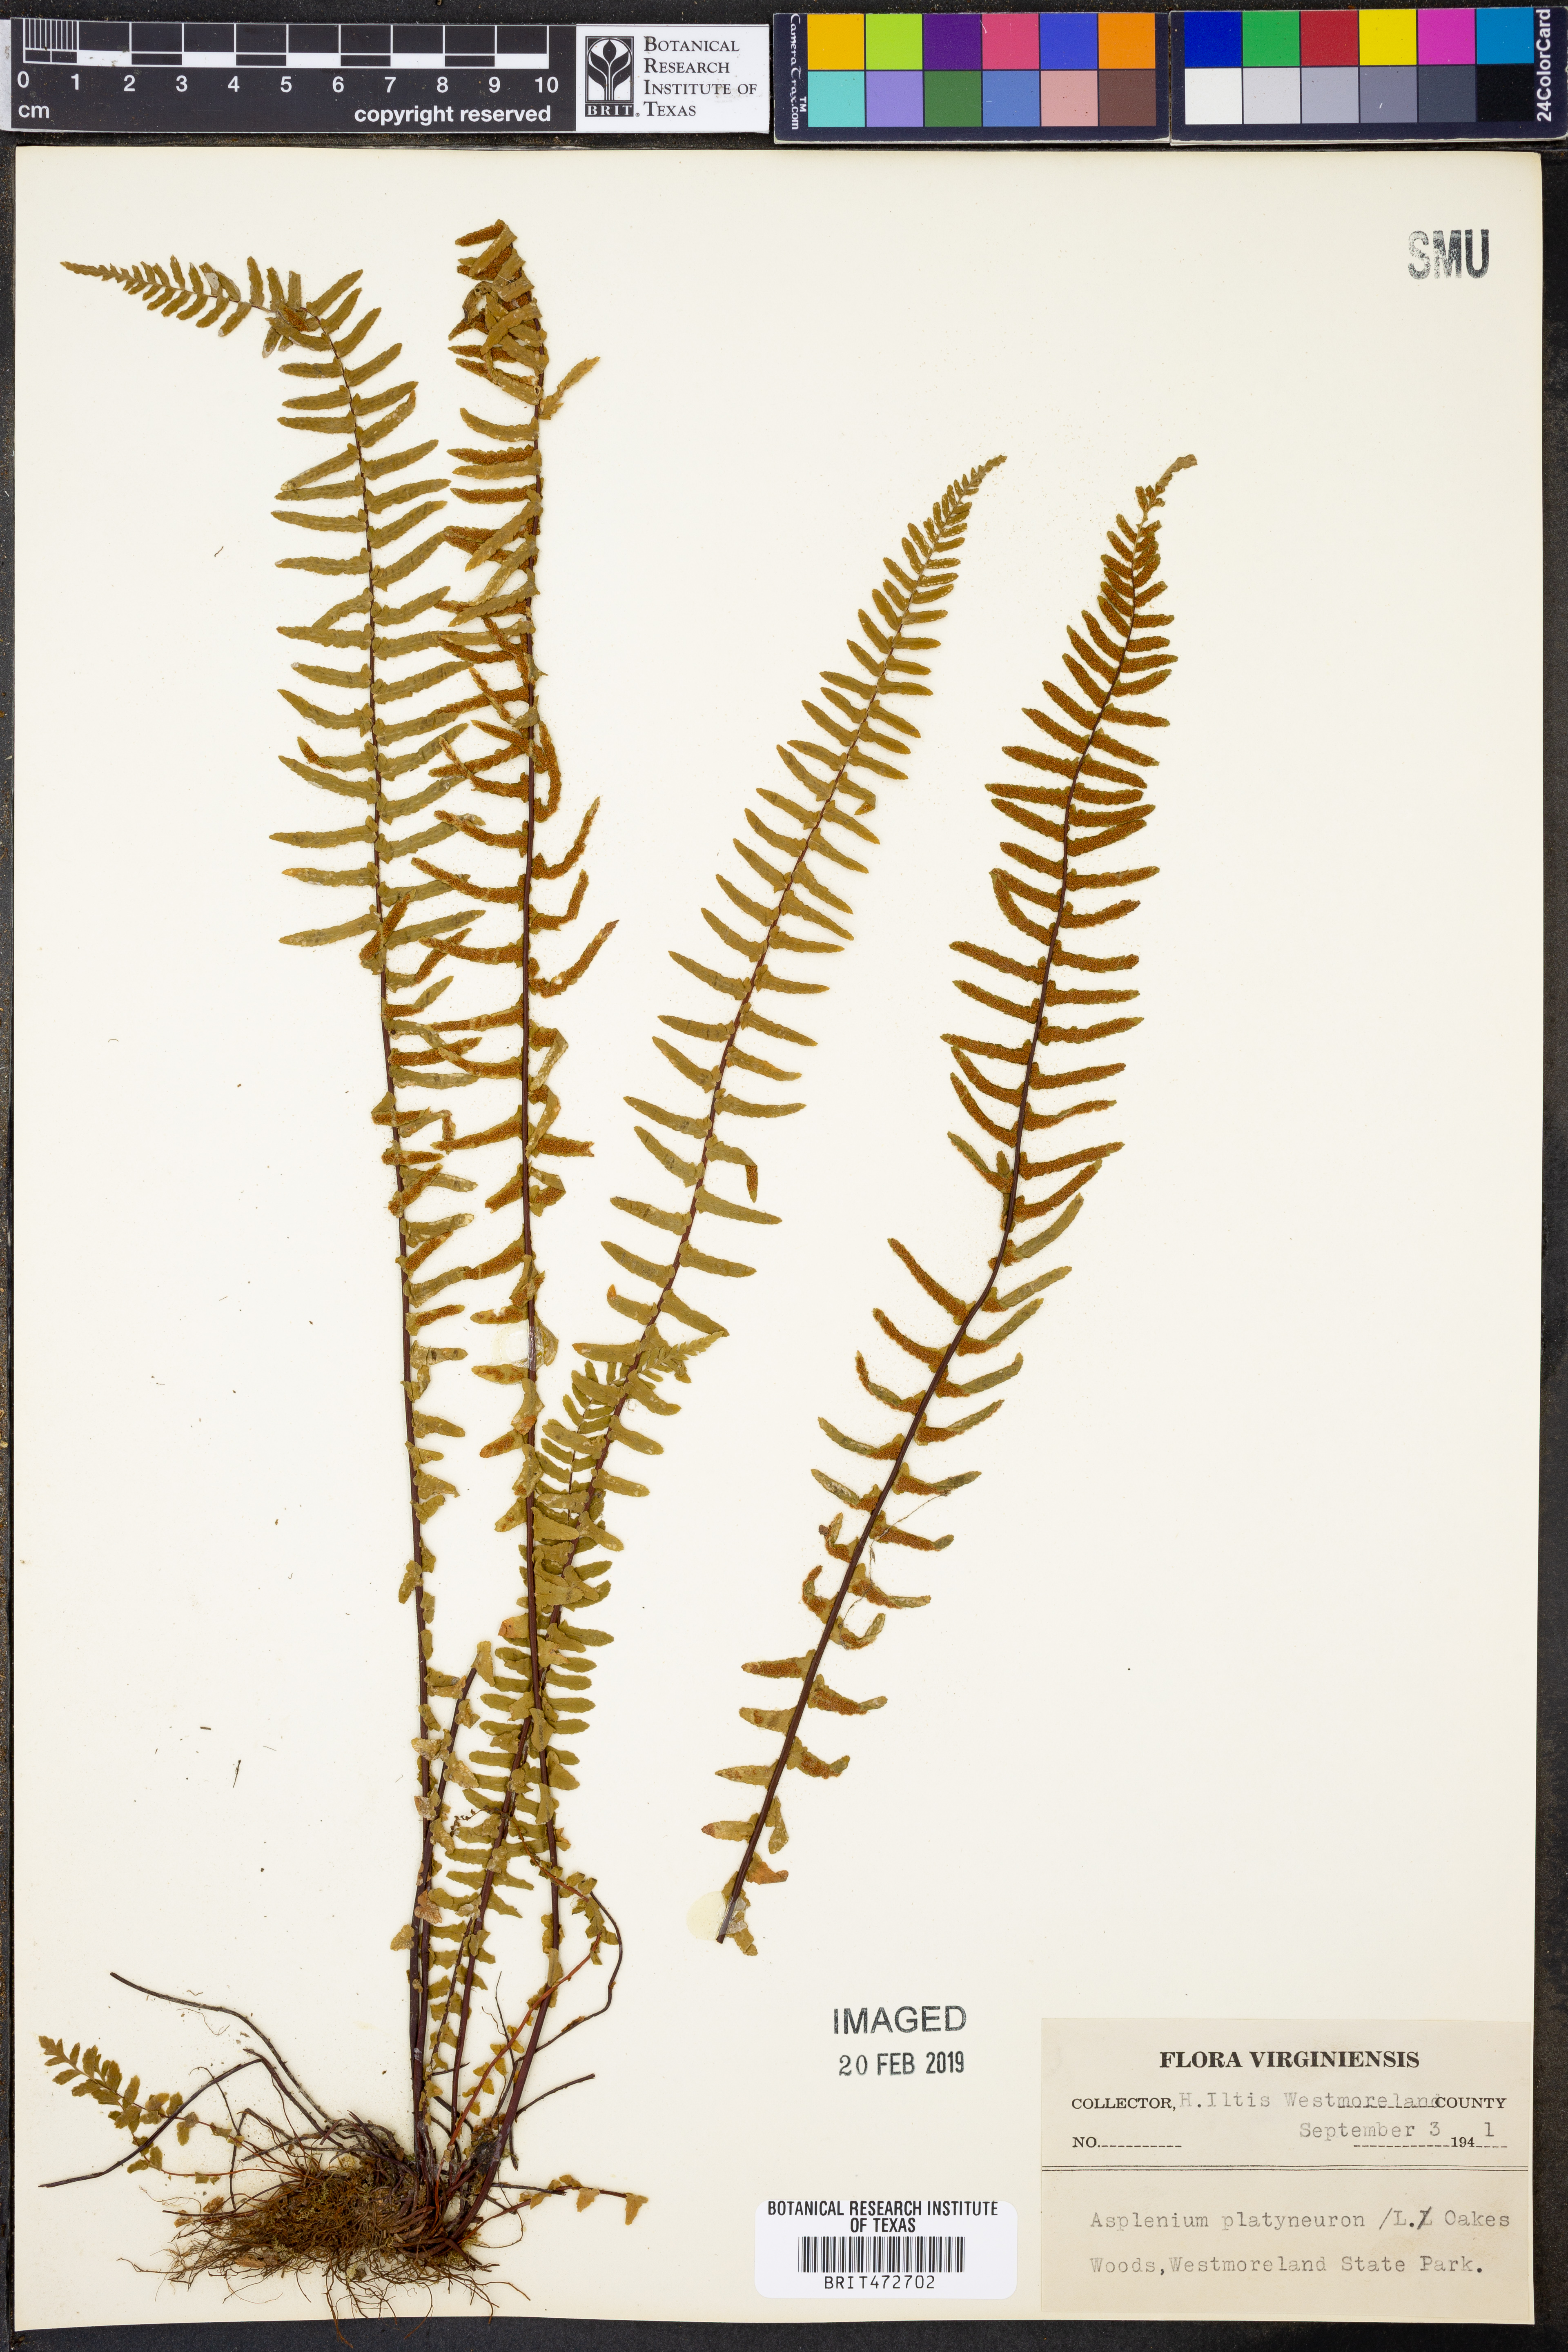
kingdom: Plantae
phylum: Tracheophyta
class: Polypodiopsida
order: Polypodiales
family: Aspleniaceae
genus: Asplenium
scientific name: Asplenium platyneuron
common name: Ebony spleenwort
